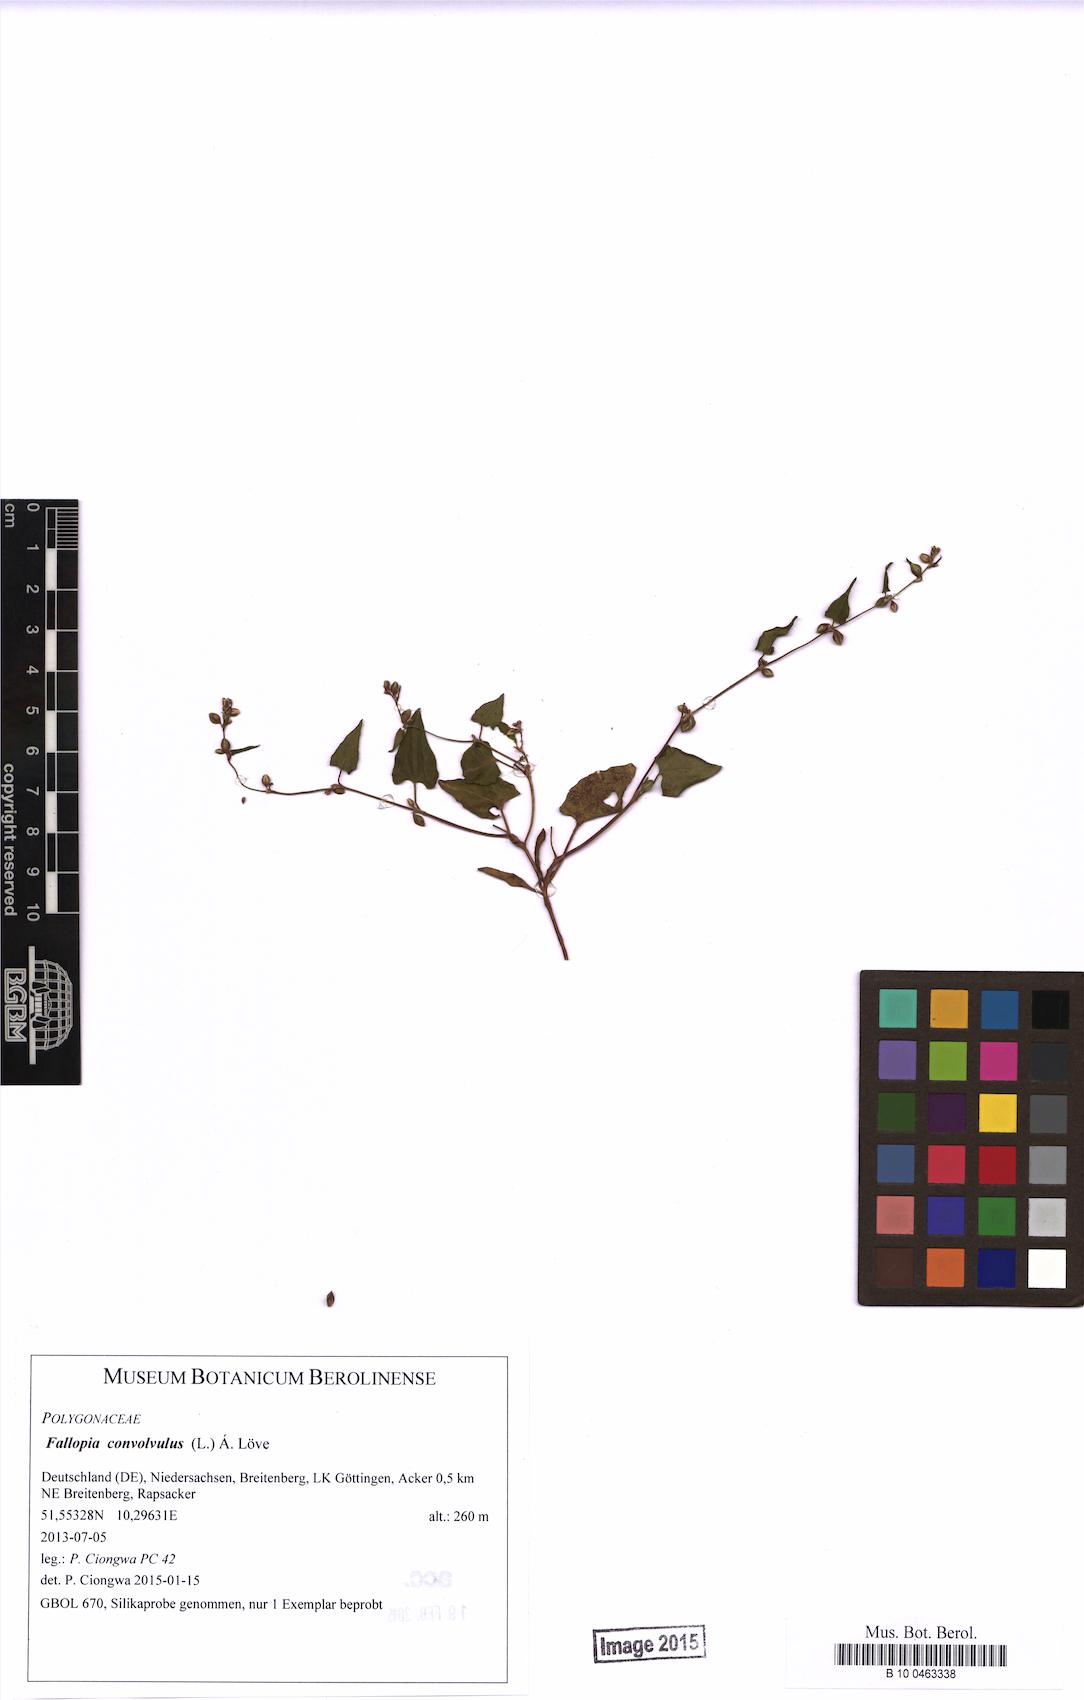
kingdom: Plantae
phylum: Tracheophyta
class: Magnoliopsida
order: Caryophyllales
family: Polygonaceae
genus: Fallopia
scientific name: Fallopia convolvulus
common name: Black bindweed
